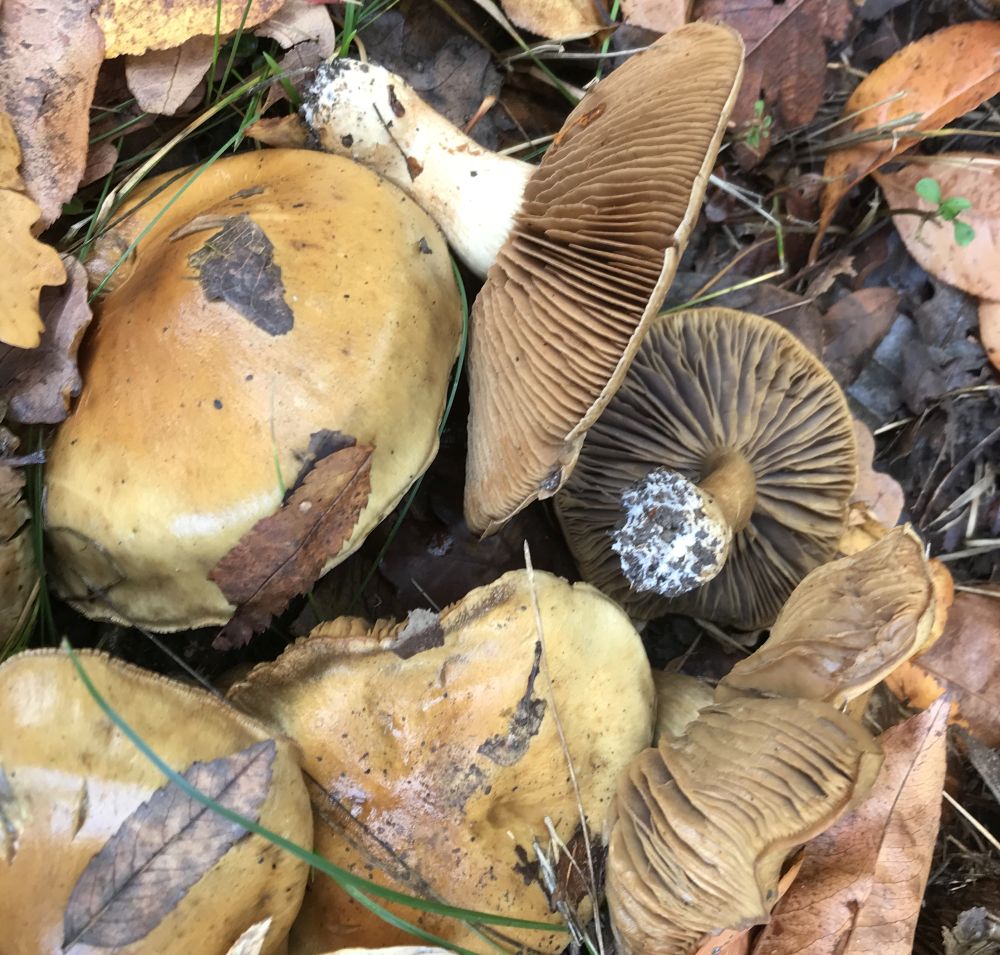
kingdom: Fungi
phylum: Basidiomycota
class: Agaricomycetes
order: Agaricales
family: Cortinariaceae
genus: Cortinarius
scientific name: Cortinarius
